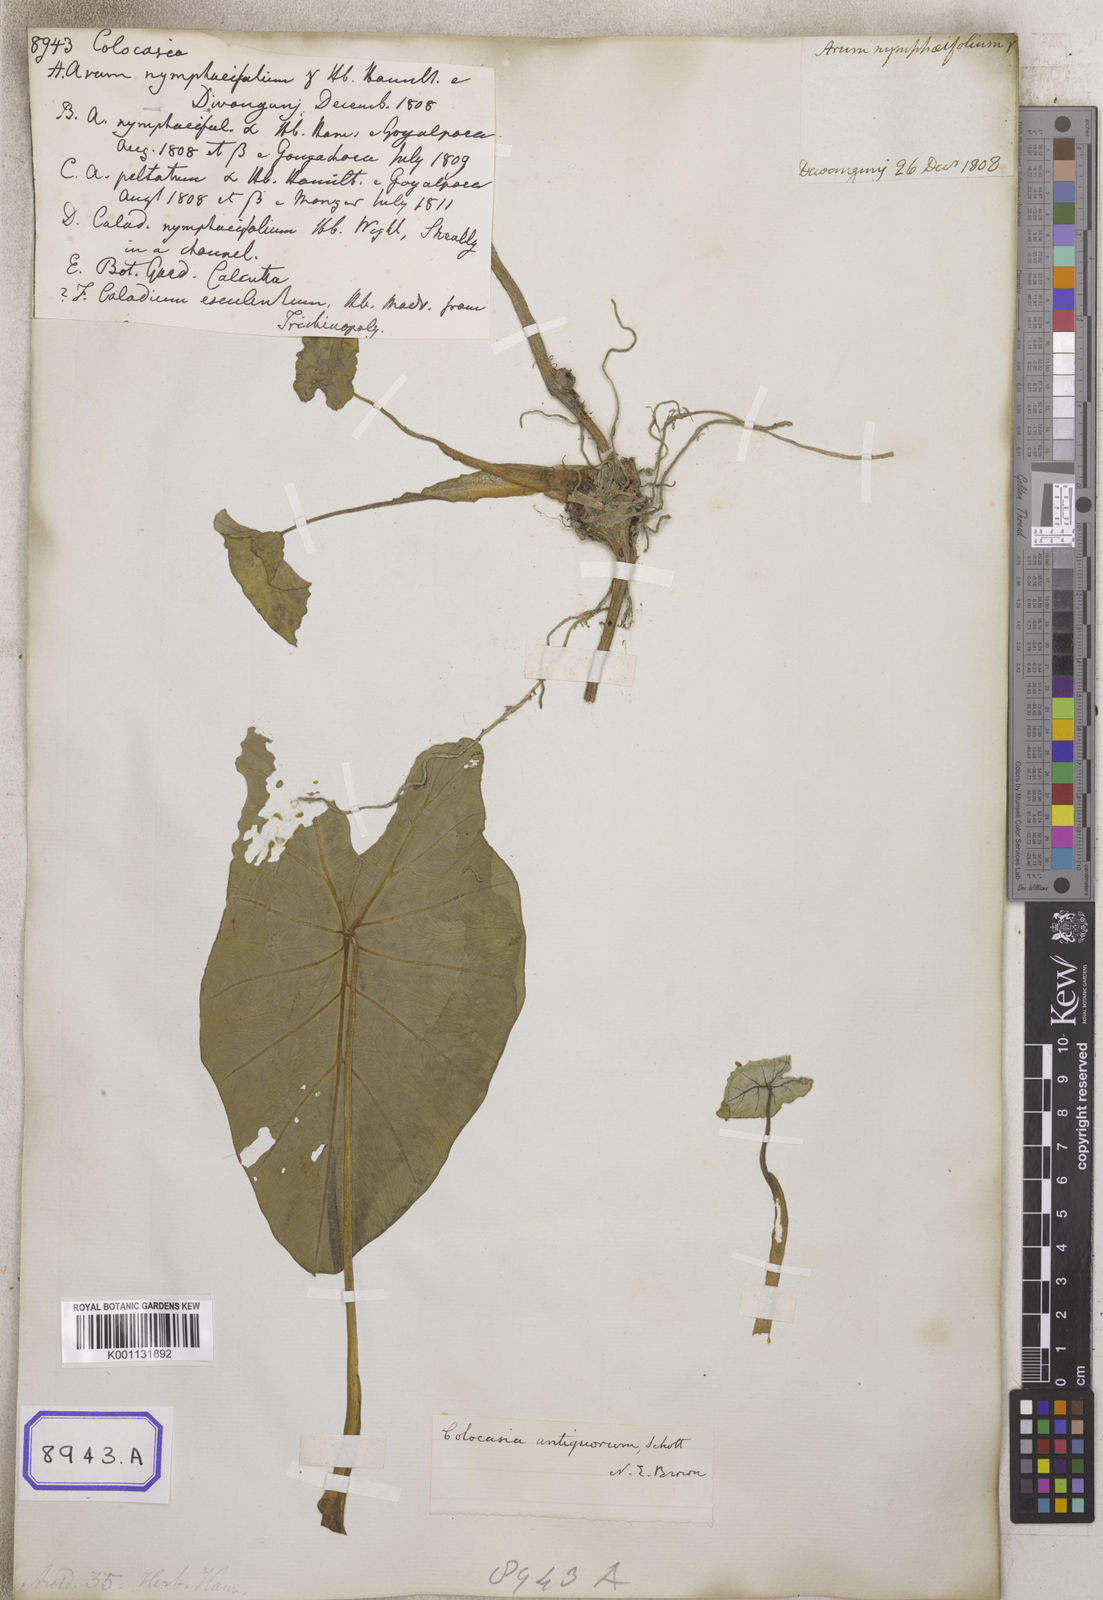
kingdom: Plantae
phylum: Tracheophyta
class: Liliopsida
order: Alismatales
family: Araceae
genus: Colocasia
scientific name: Colocasia spec
